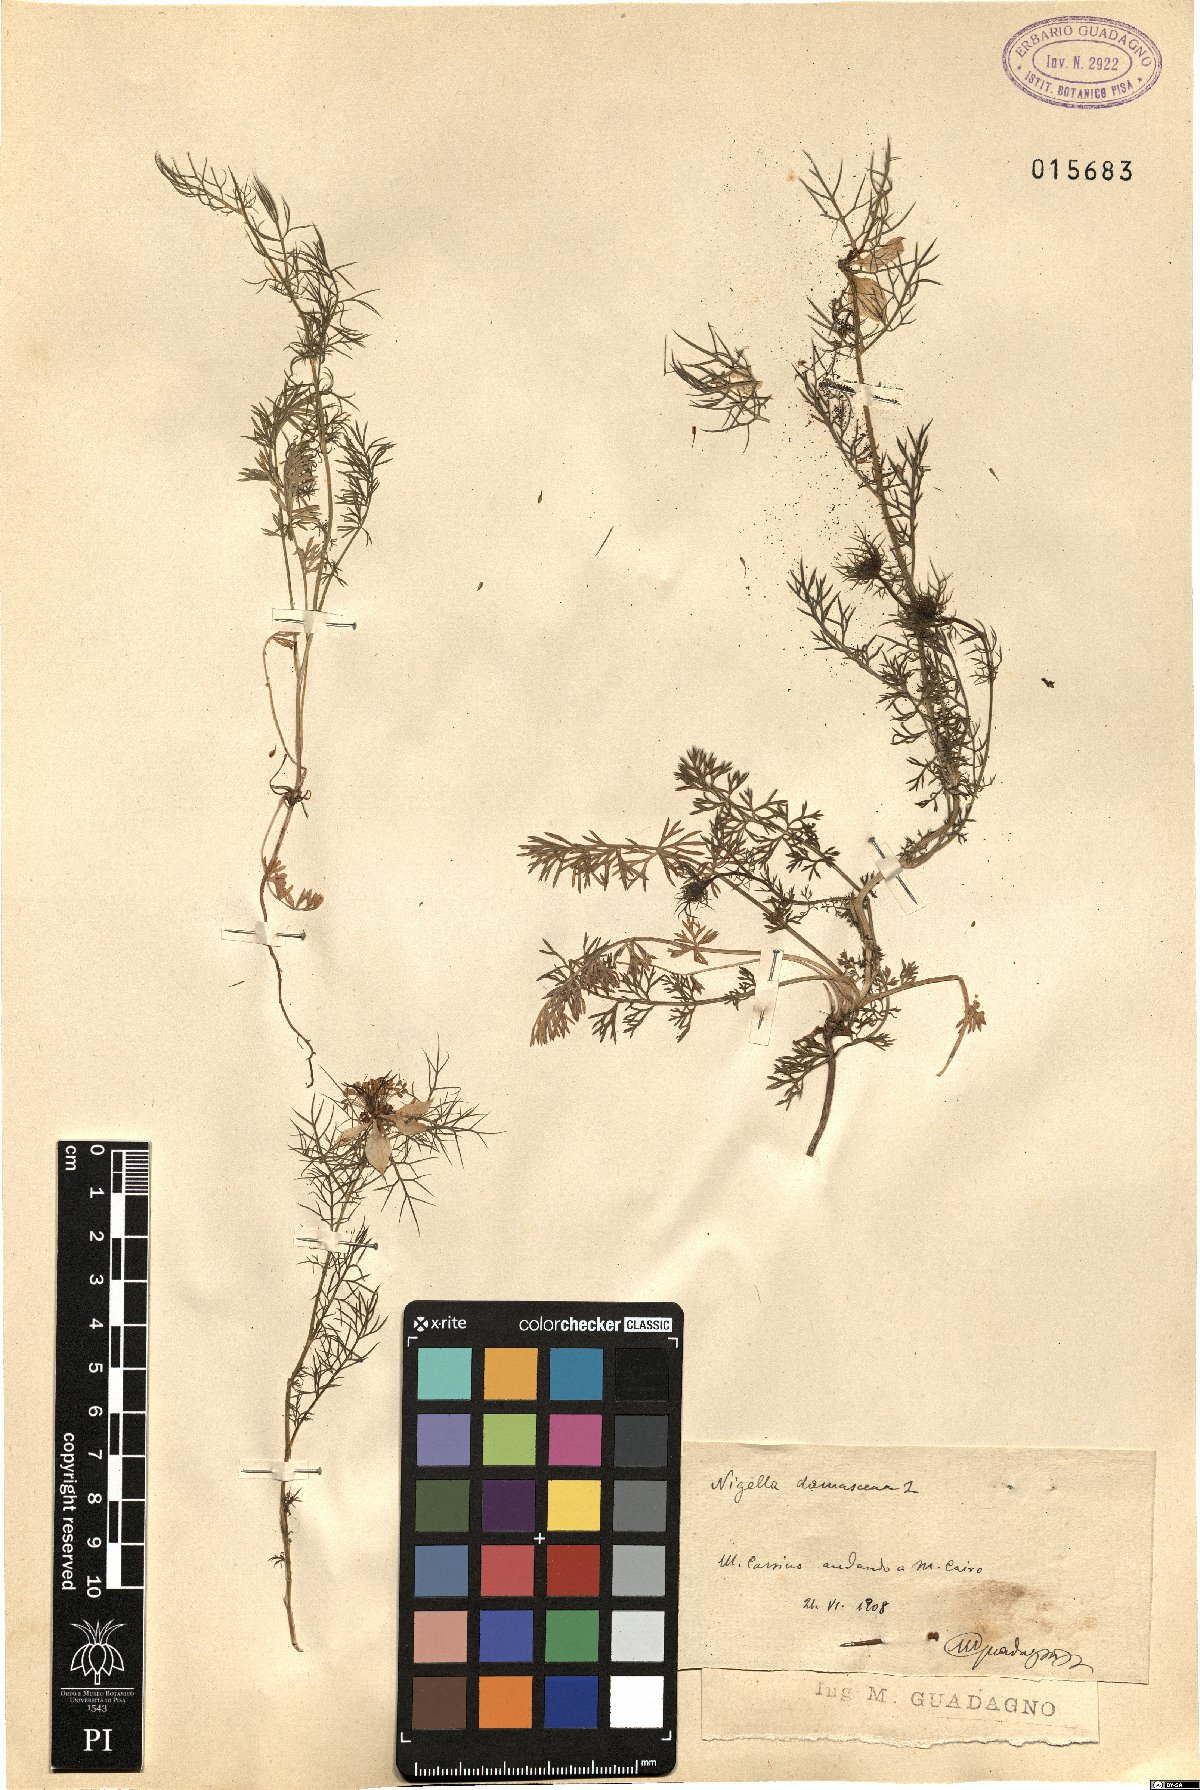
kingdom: Plantae
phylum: Tracheophyta
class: Magnoliopsida
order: Ranunculales
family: Ranunculaceae
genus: Nigella
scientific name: Nigella damascena
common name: Love-in-a-mist
